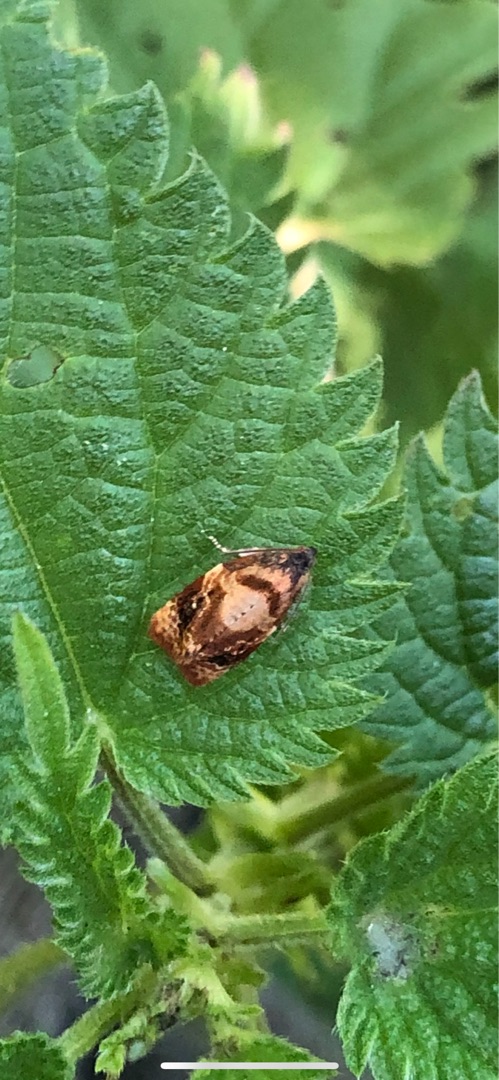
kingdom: Animalia
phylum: Arthropoda
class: Insecta
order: Lepidoptera
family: Tortricidae
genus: Ditula
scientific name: Ditula angustiorana
